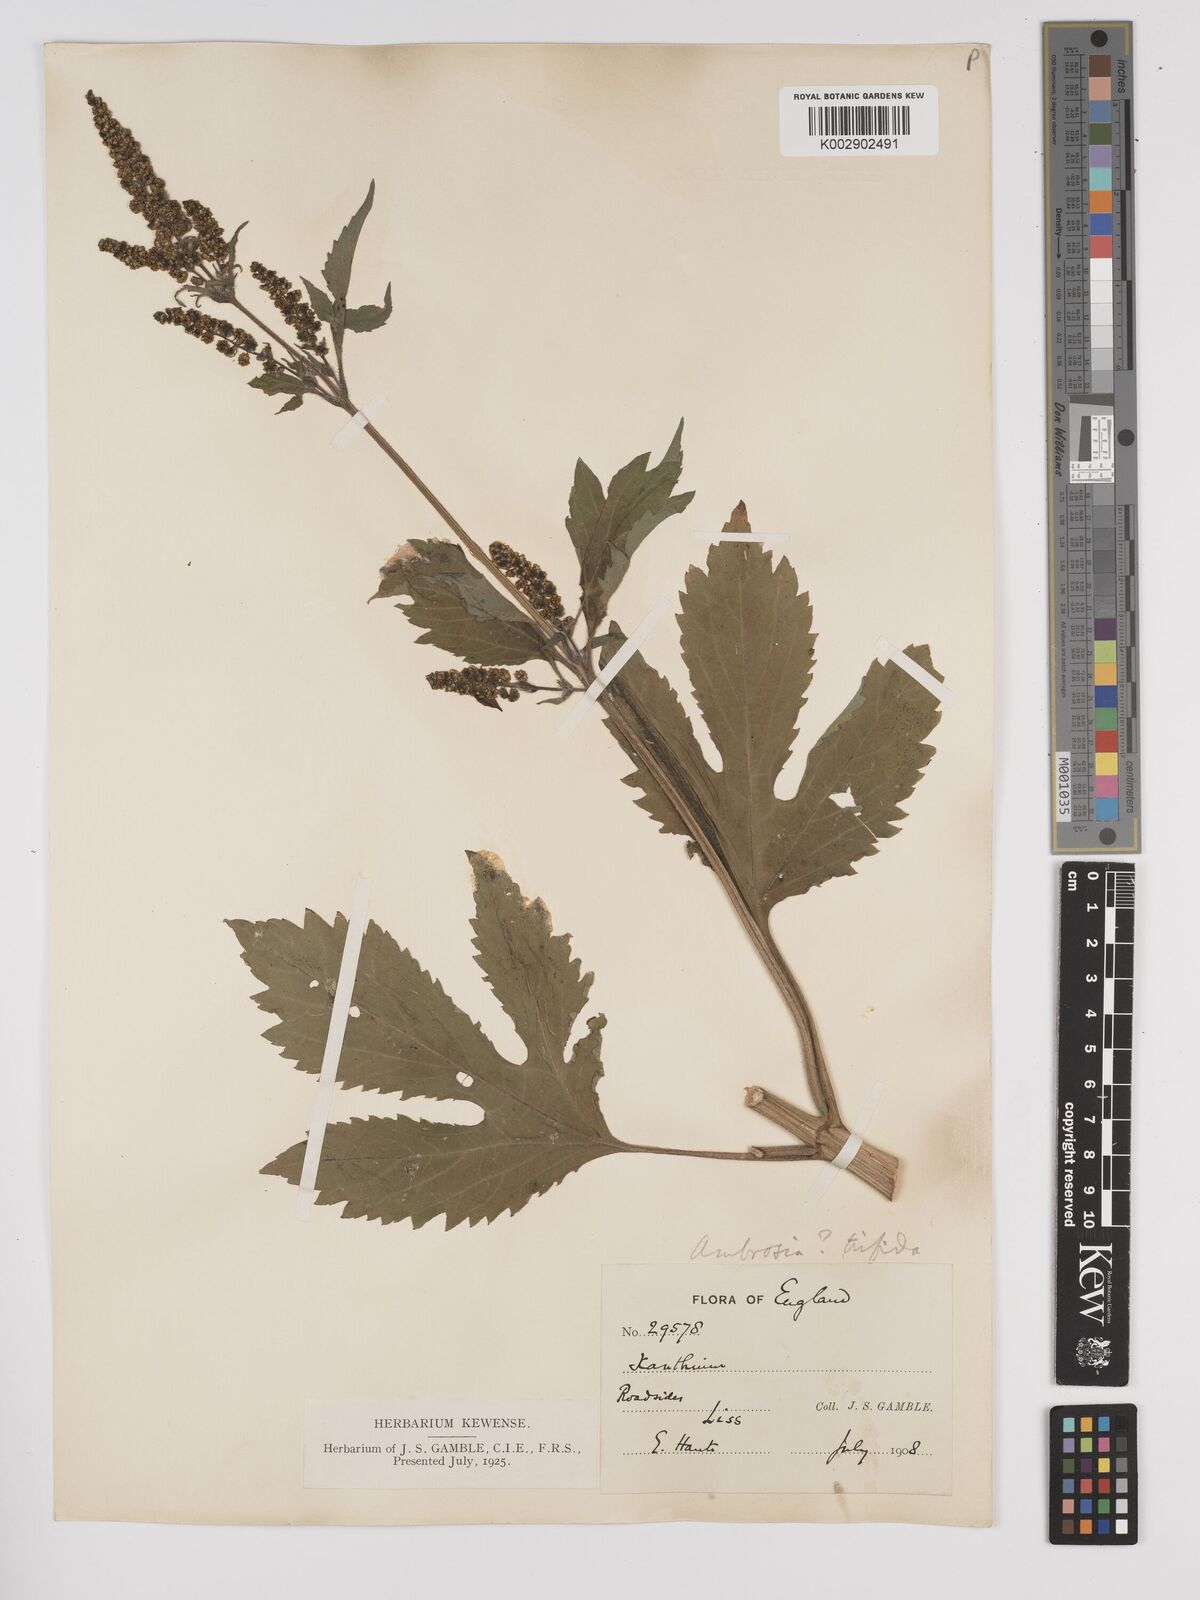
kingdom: Plantae
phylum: Tracheophyta
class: Magnoliopsida
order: Asterales
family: Asteraceae
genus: Ambrosia
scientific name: Ambrosia trifida
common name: Giant ragweed
